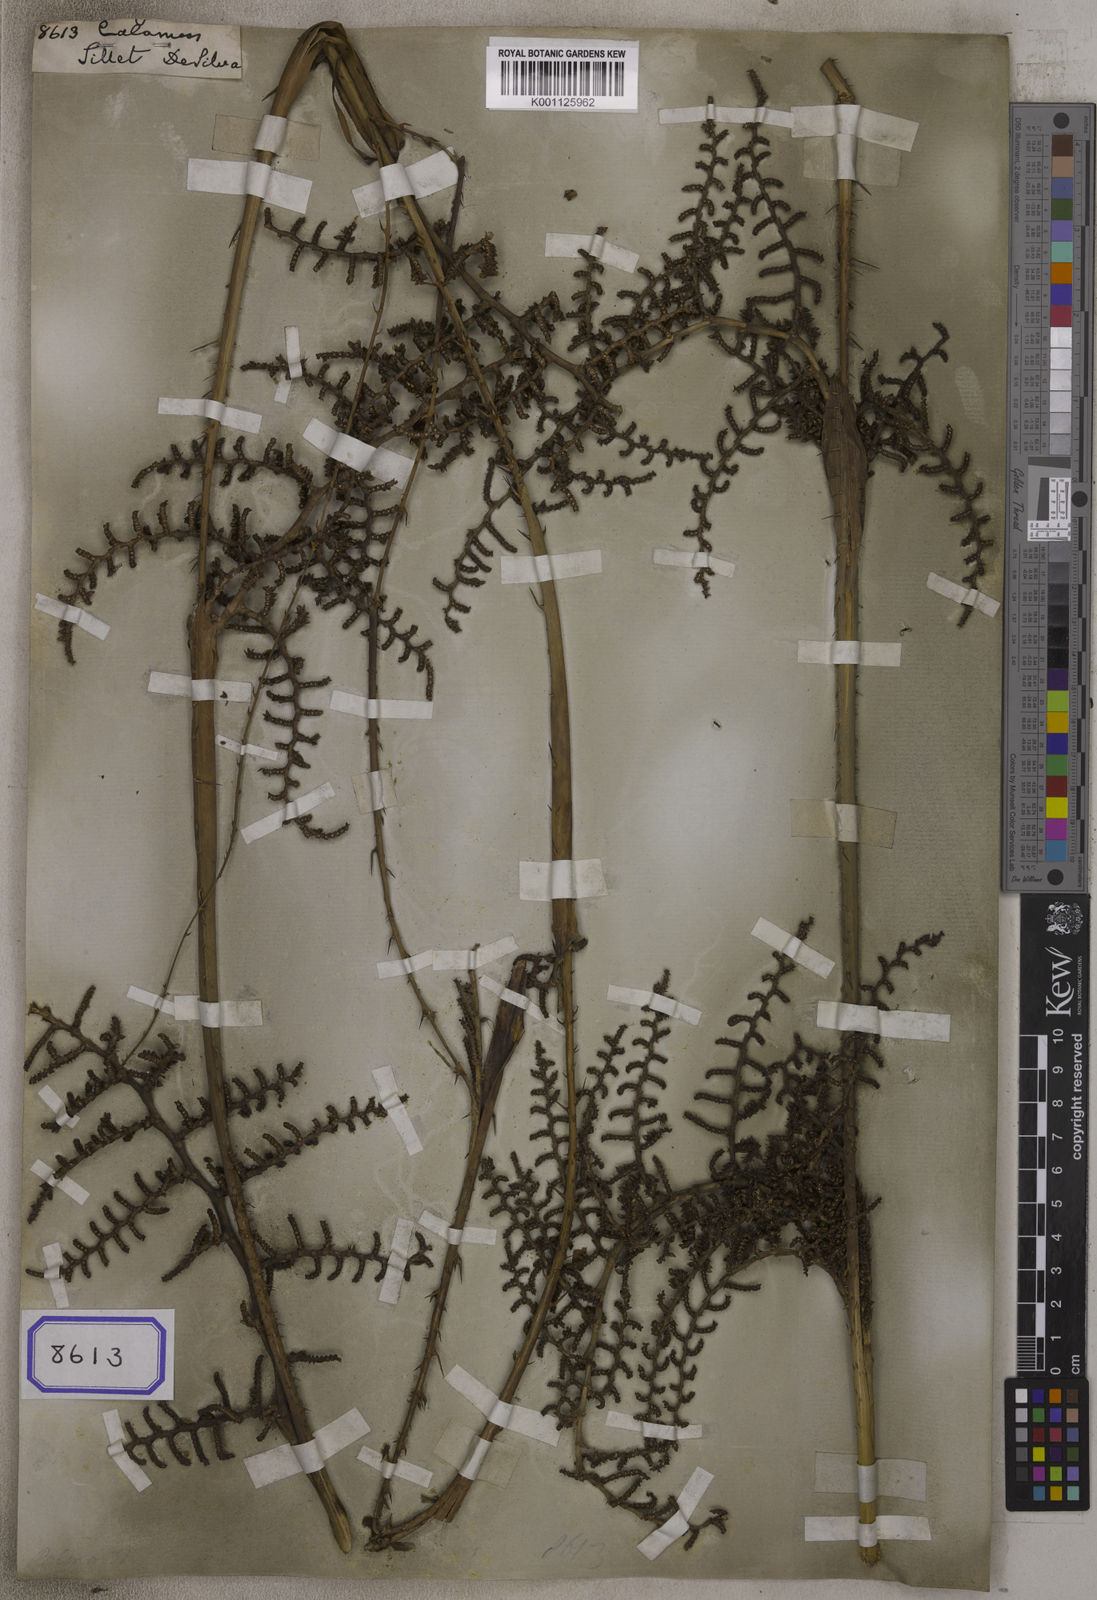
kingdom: Plantae
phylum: Tracheophyta
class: Liliopsida
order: Arecales
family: Arecaceae
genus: Calamus
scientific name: Calamus
